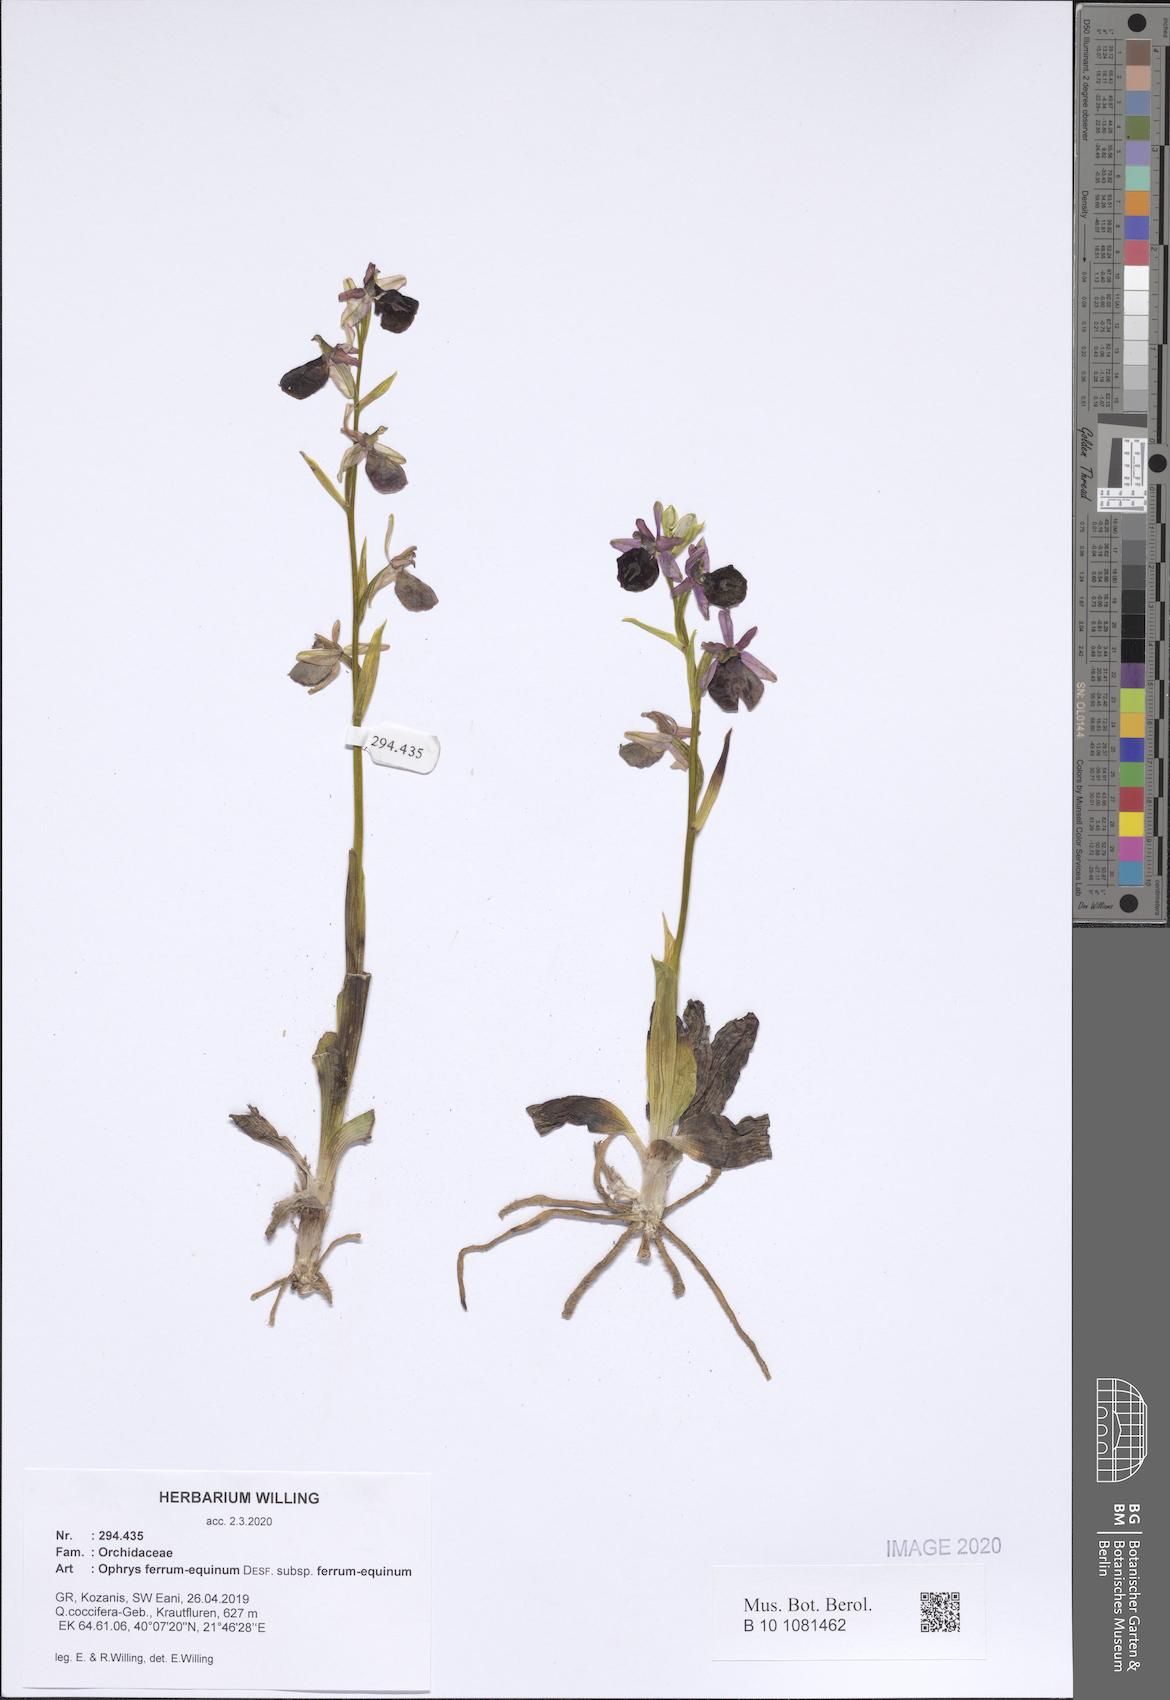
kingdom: Plantae
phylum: Tracheophyta
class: Liliopsida
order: Asparagales
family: Orchidaceae
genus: Ophrys
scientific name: Ophrys ferrum-equinum
